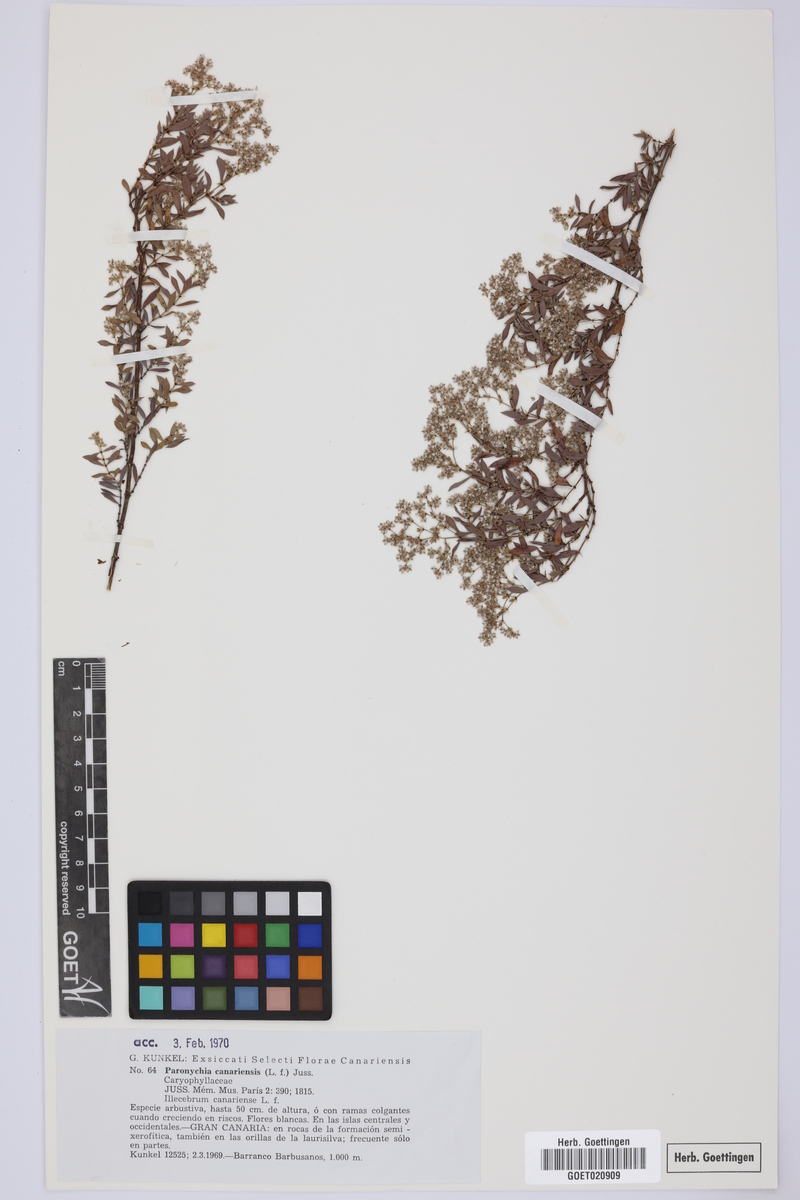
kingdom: Plantae
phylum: Tracheophyta
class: Magnoliopsida
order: Caryophyllales
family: Caryophyllaceae
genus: Paronychia
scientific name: Paronychia canariensis
